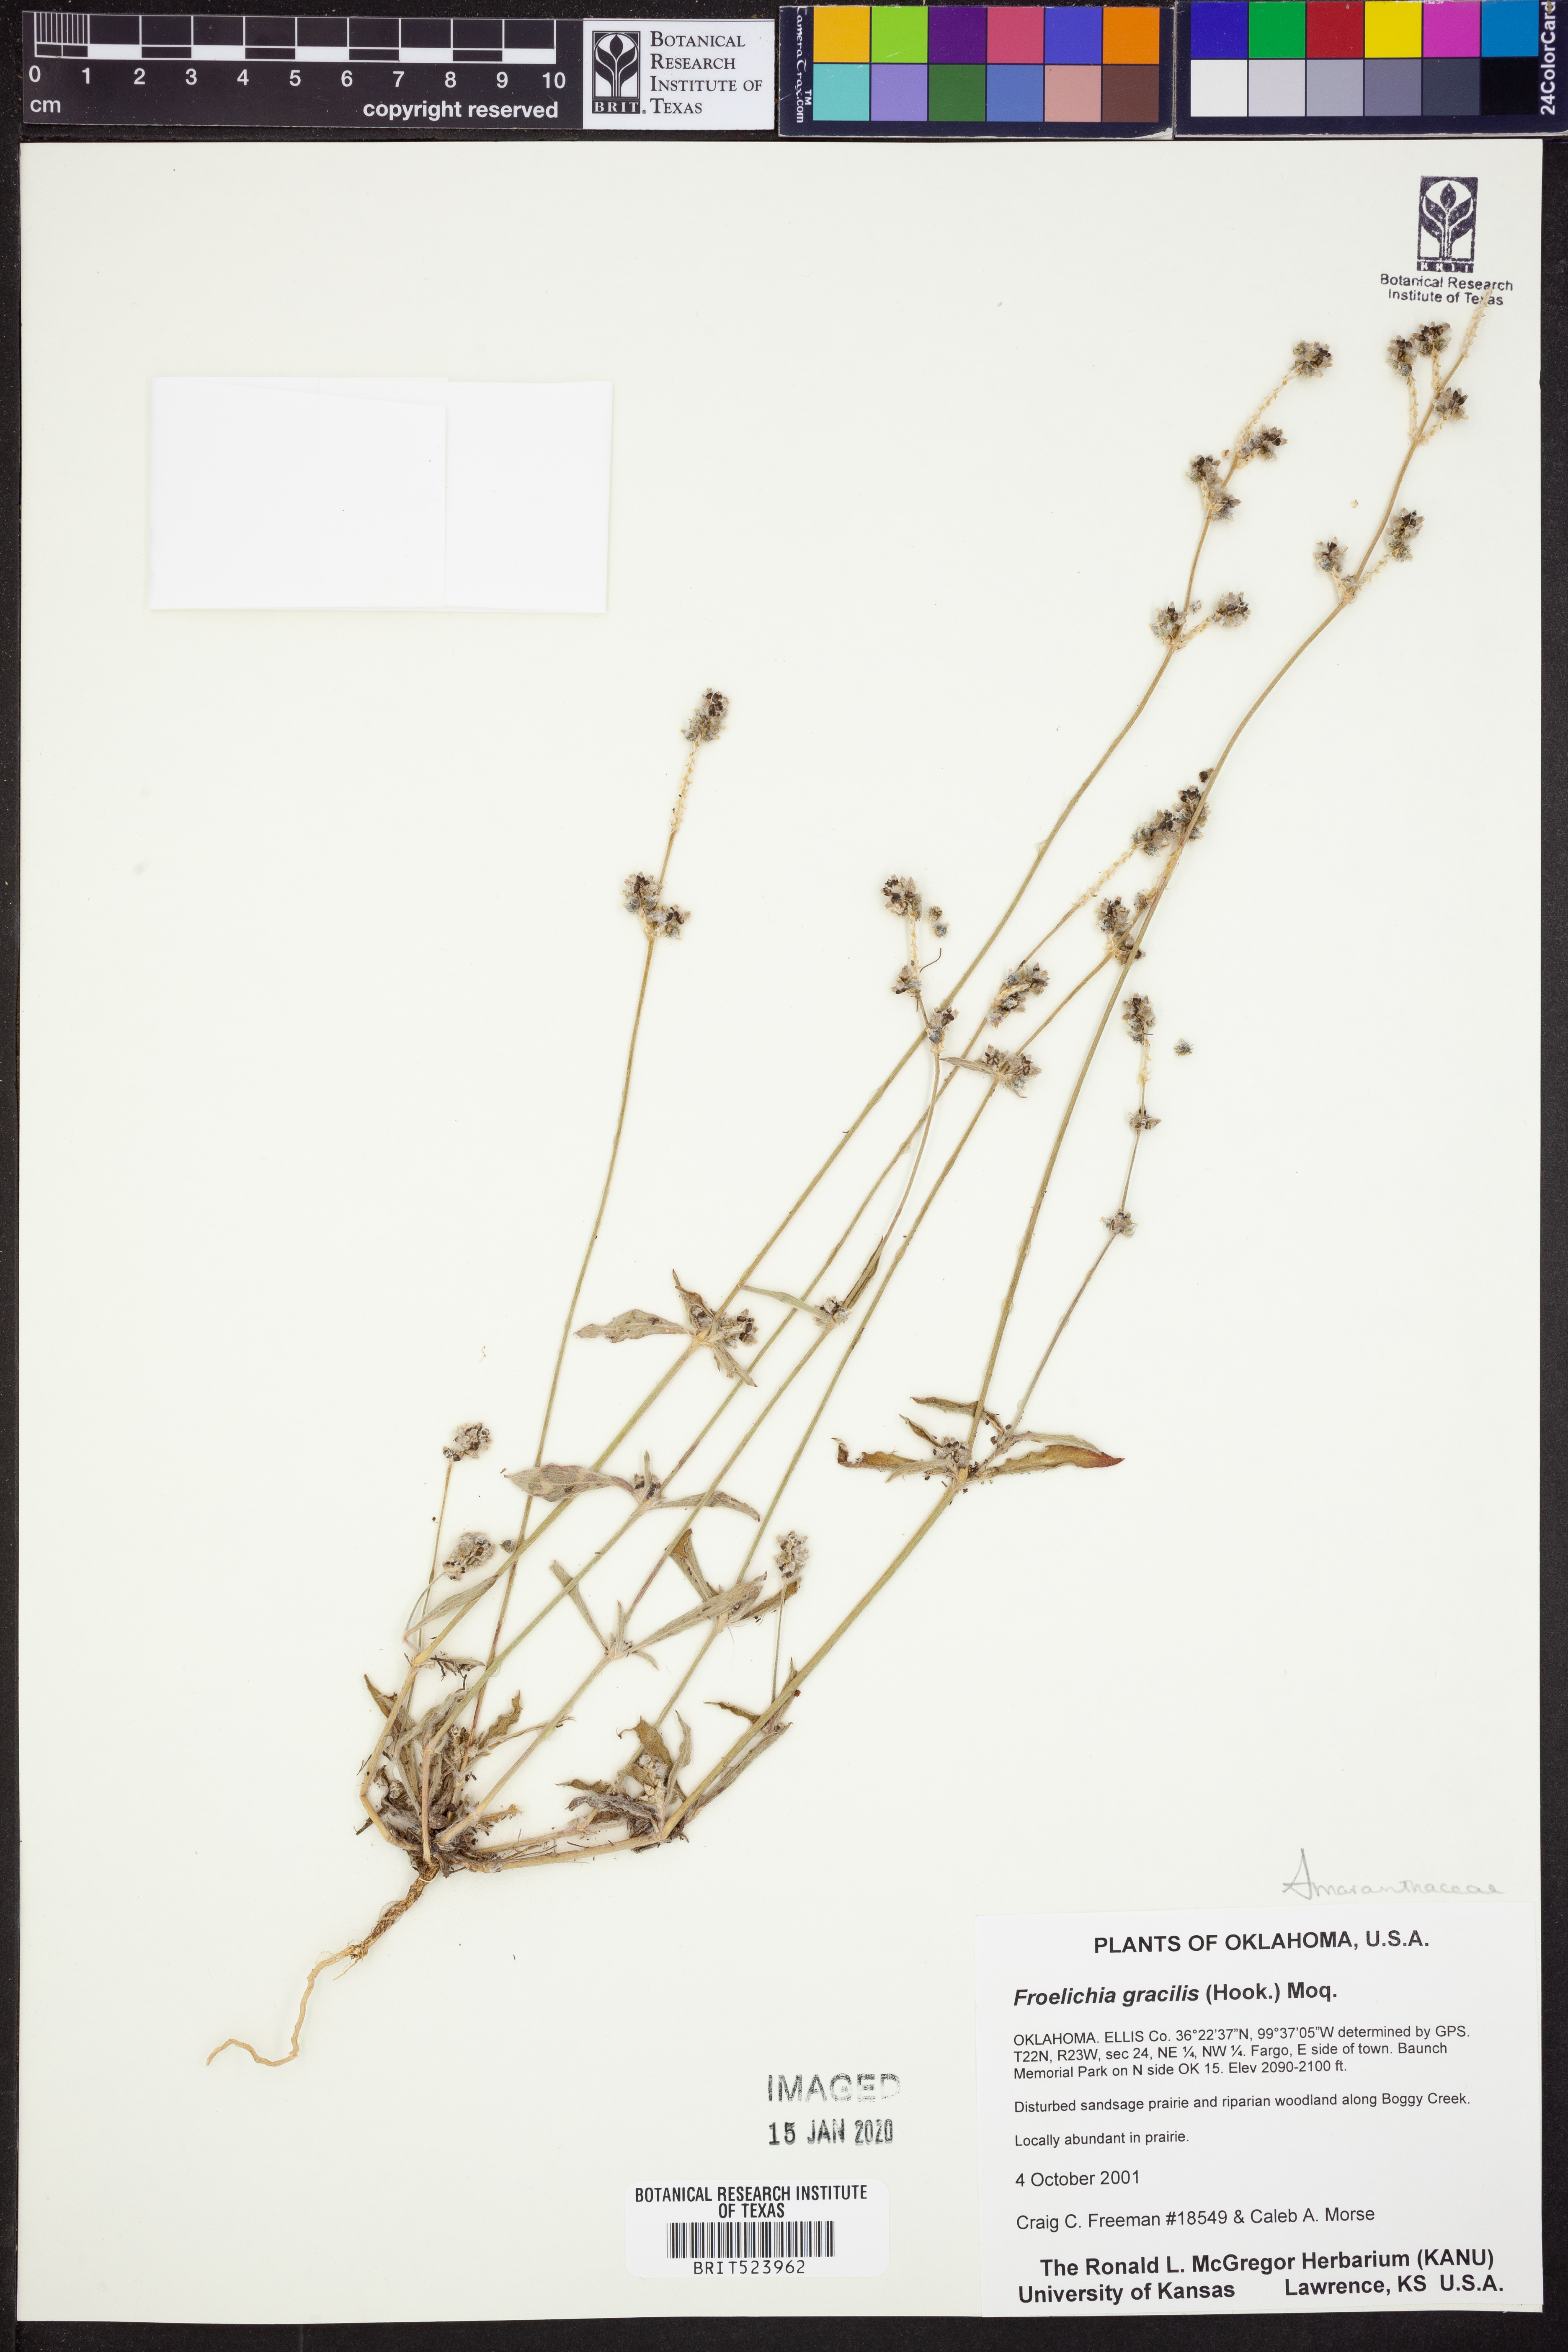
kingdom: Plantae
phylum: Tracheophyta
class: Magnoliopsida
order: Caryophyllales
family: Amaranthaceae
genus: Froelichia
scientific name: Froelichia gracilis
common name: Slender cottonweed
